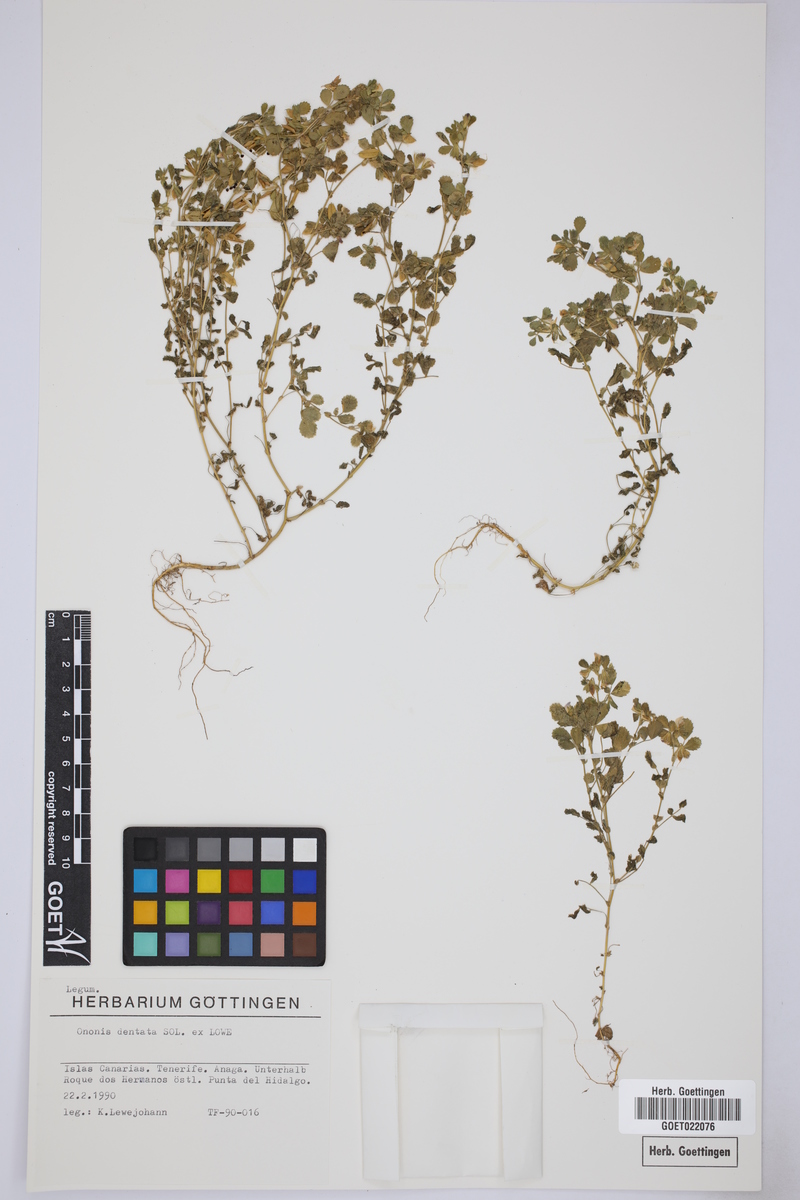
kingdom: Plantae
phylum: Tracheophyta
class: Magnoliopsida
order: Fabales
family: Fabaceae
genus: Ononis
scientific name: Ononis dentata
